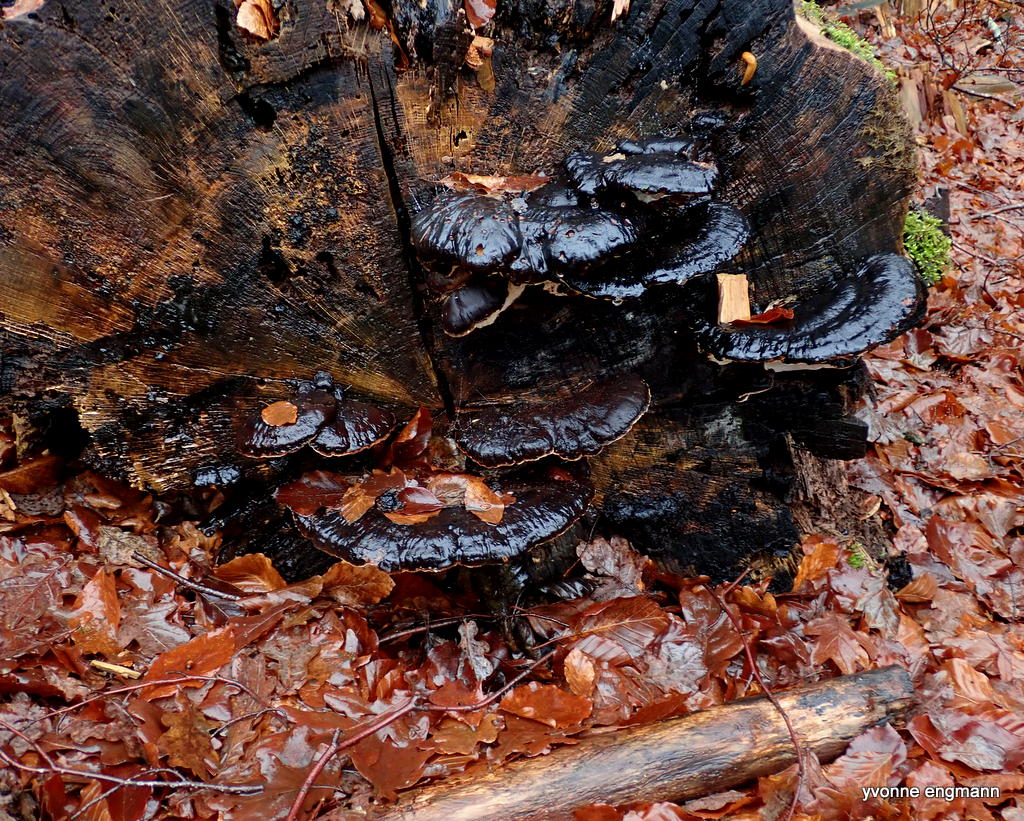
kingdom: Fungi
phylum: Basidiomycota
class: Agaricomycetes
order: Polyporales
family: Ischnodermataceae
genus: Ischnoderma
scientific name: Ischnoderma resinosum
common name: løv-tjæreporesvamp
